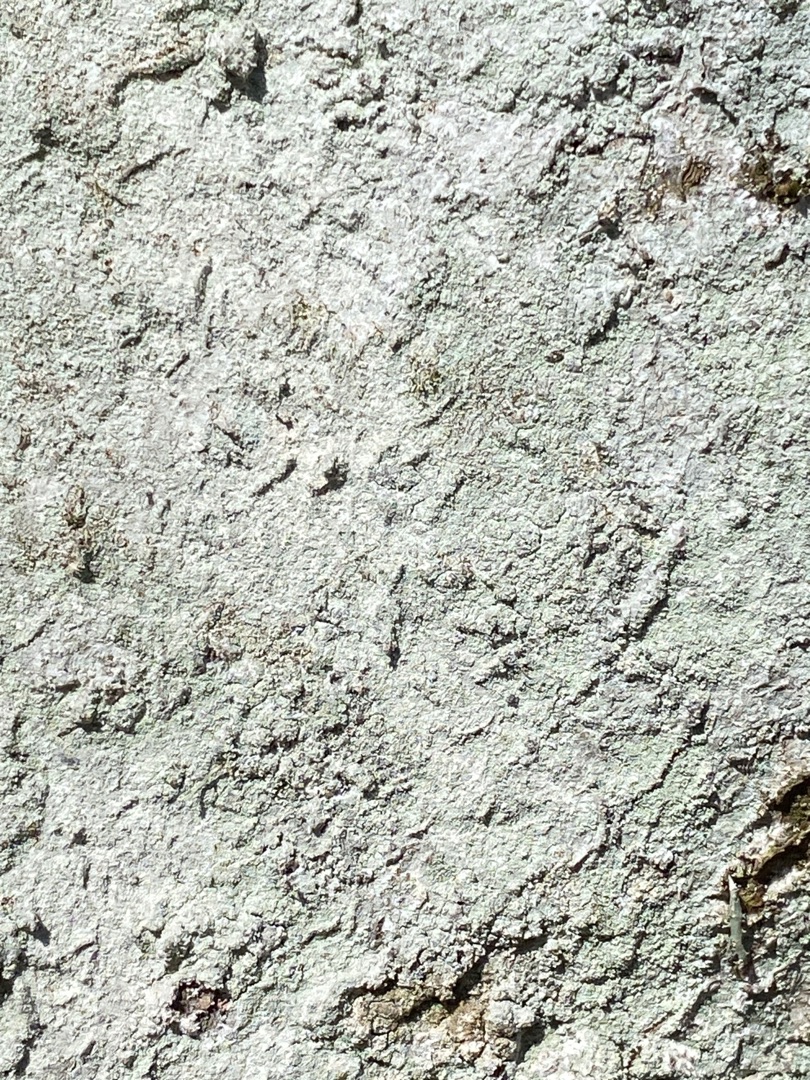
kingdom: Fungi
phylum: Ascomycota
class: Lecanoromycetes
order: Ostropales
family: Phlyctidaceae
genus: Phlyctis
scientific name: Phlyctis argena
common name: Almindelig sølvlav
